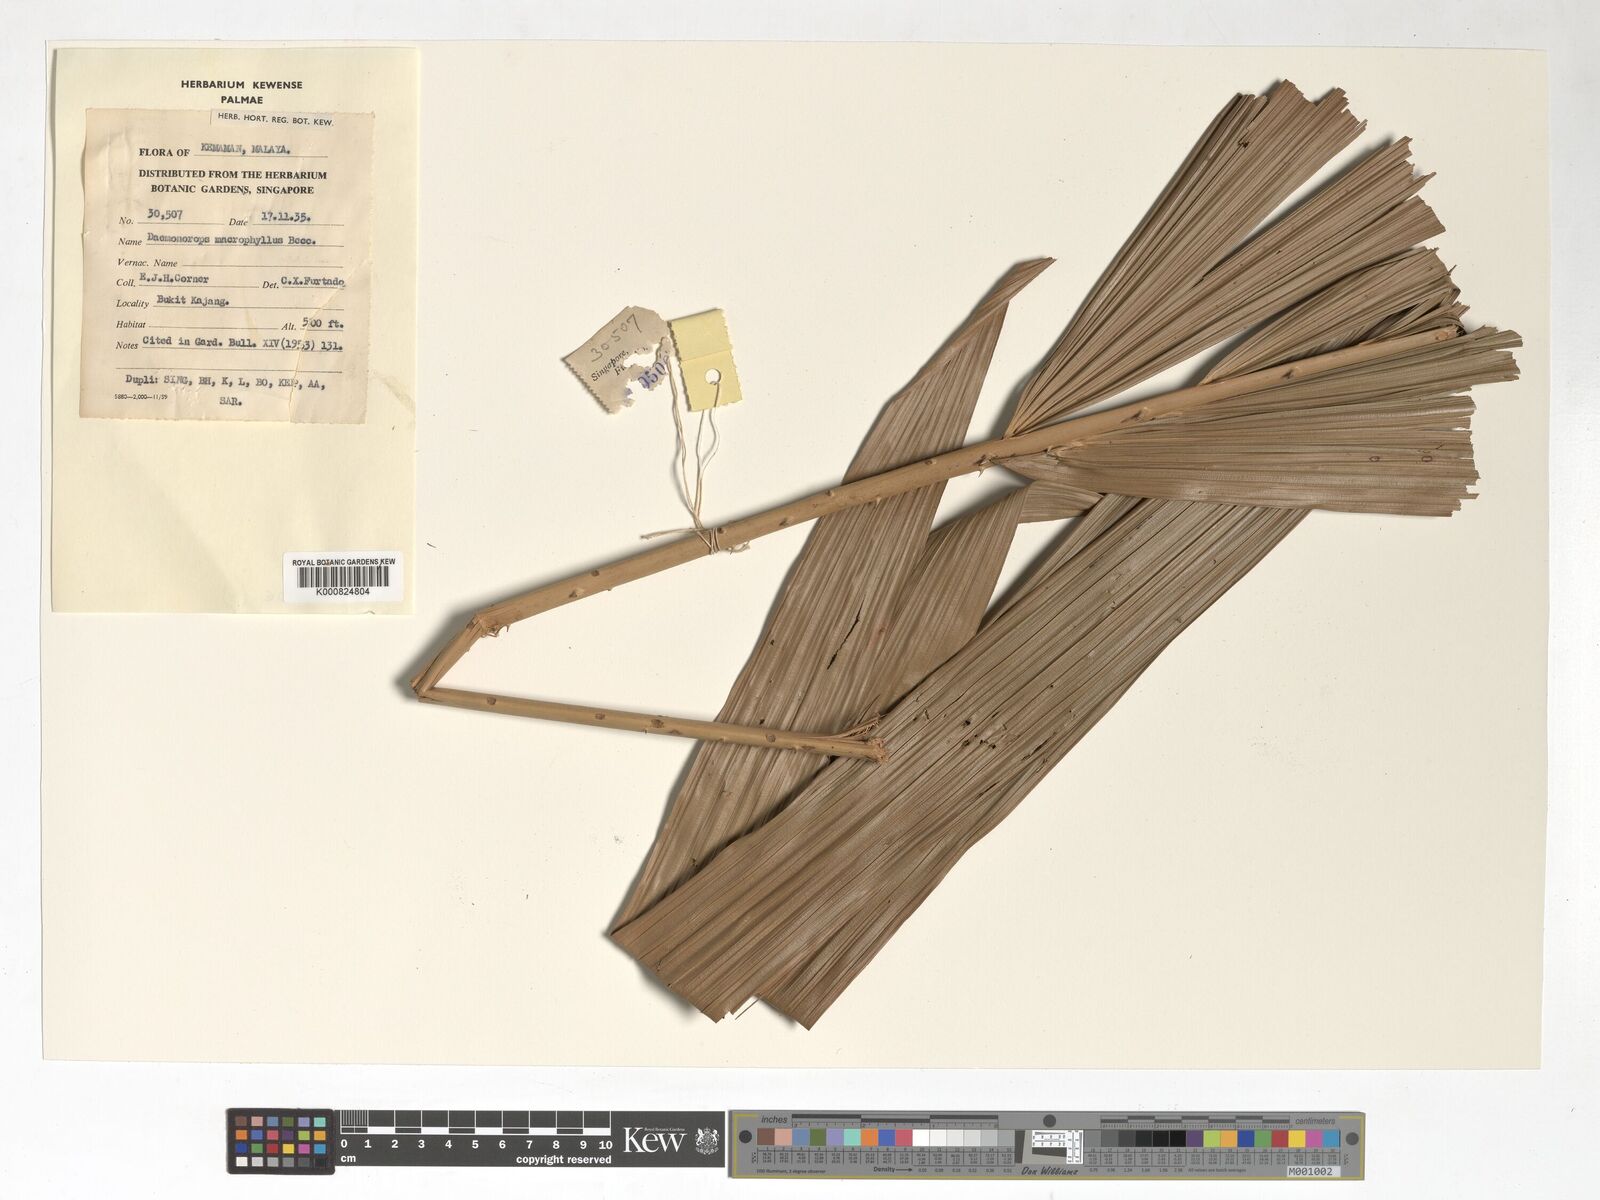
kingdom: Plantae
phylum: Tracheophyta
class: Liliopsida
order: Arecales
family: Arecaceae
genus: Calamus
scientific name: Calamus crinitus
